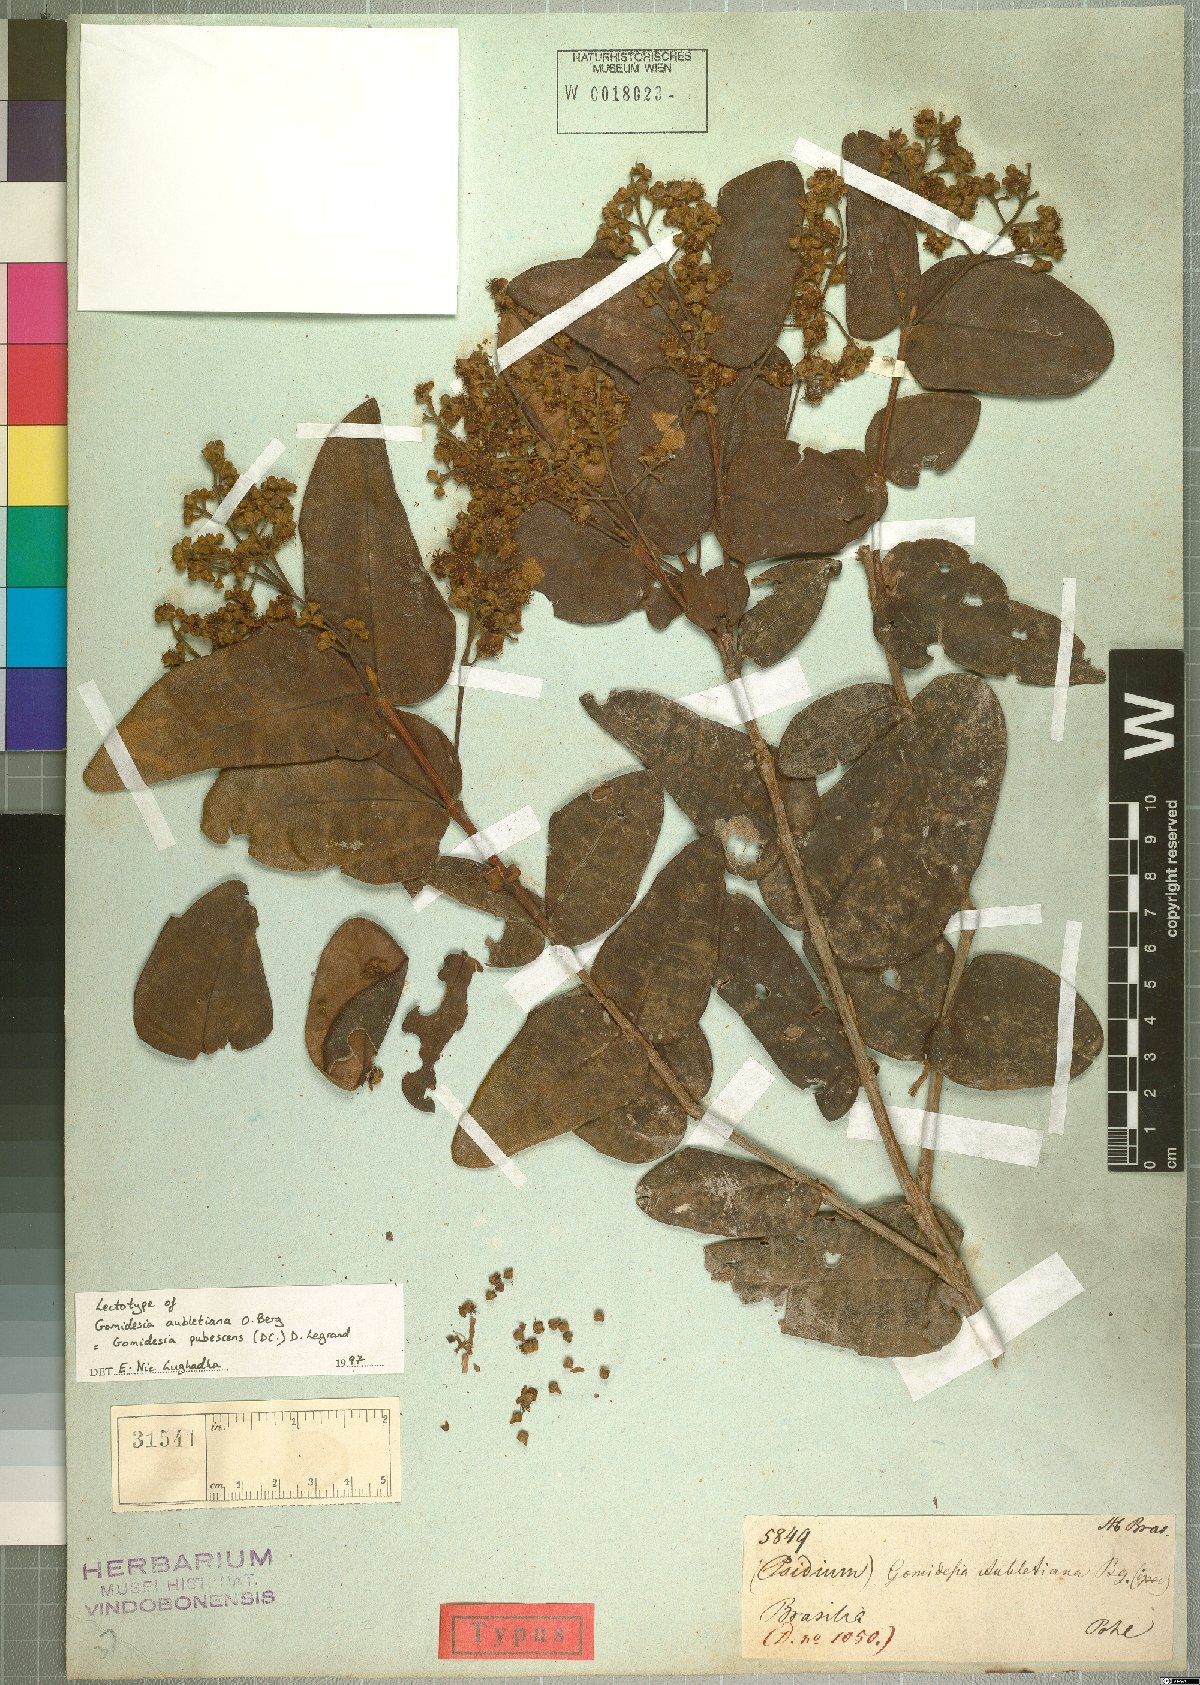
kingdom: Plantae
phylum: Tracheophyta
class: Magnoliopsida
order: Myrtales
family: Myrtaceae
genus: Myrcia
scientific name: Myrcia pubescens
